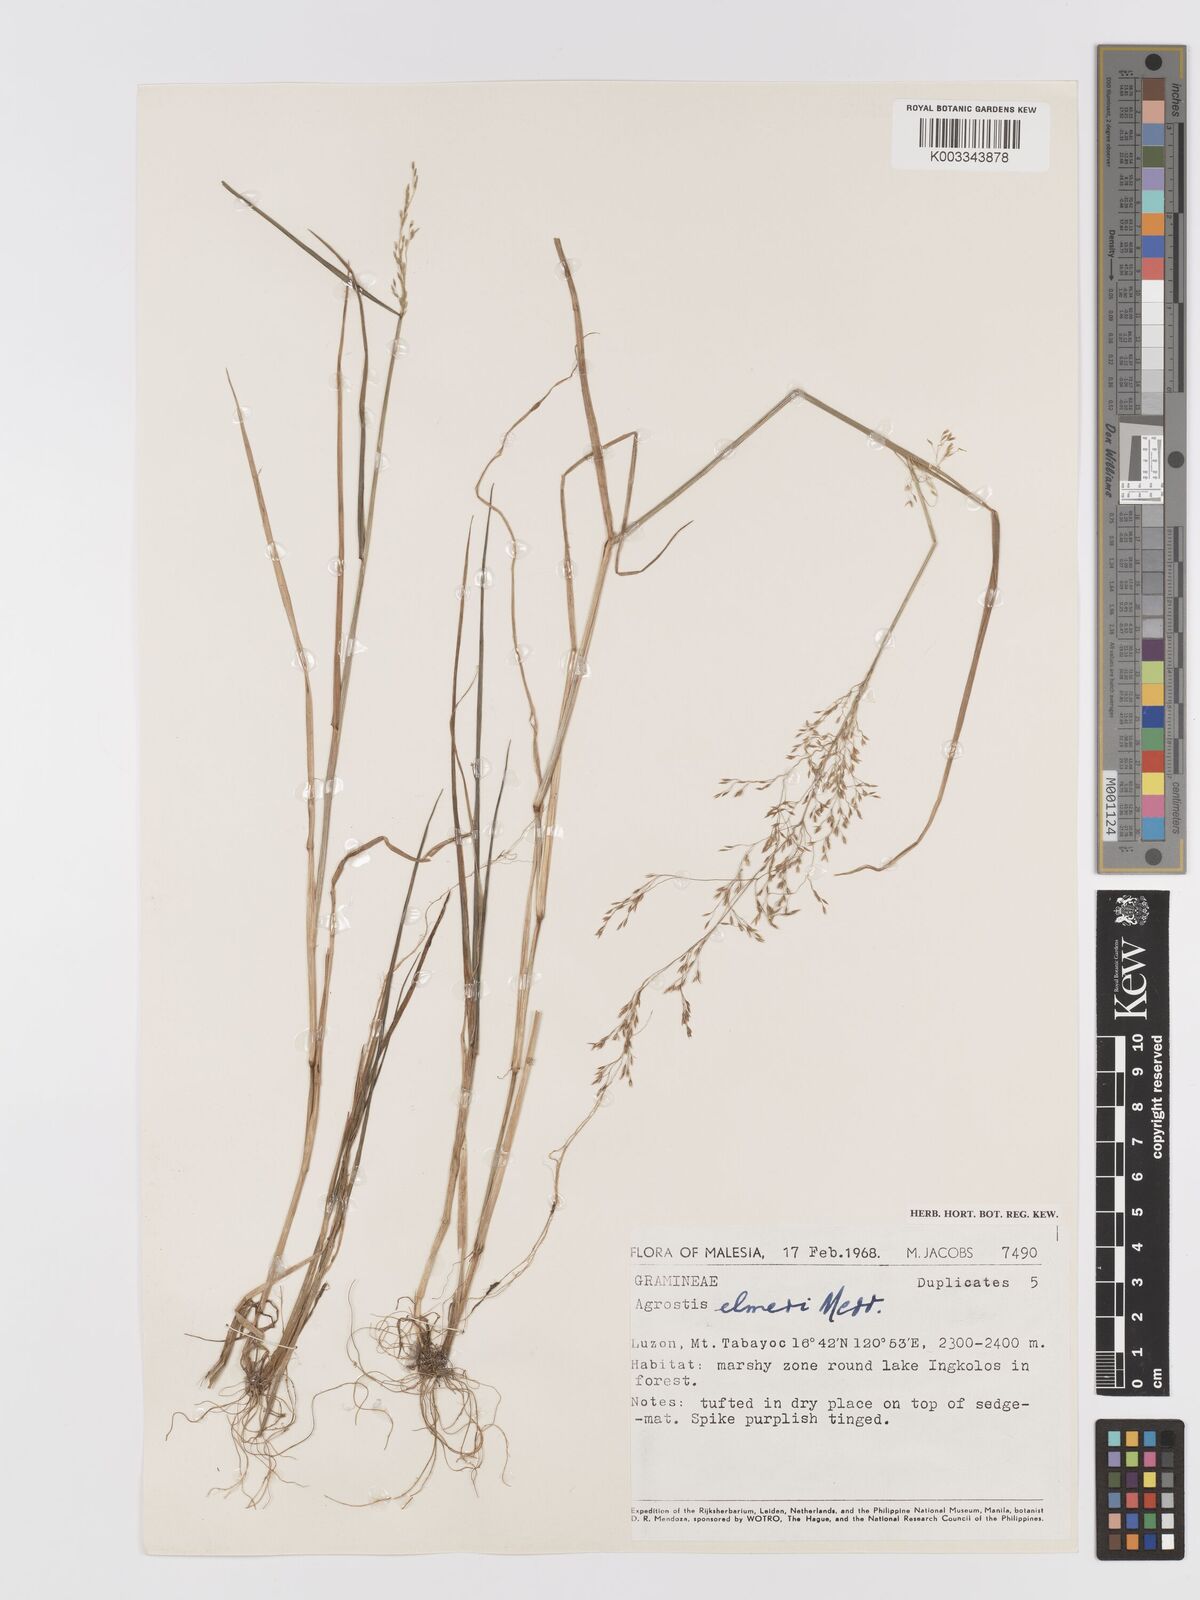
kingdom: Plantae
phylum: Tracheophyta
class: Liliopsida
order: Poales
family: Poaceae
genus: Agrostis
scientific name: Agrostis infirma
